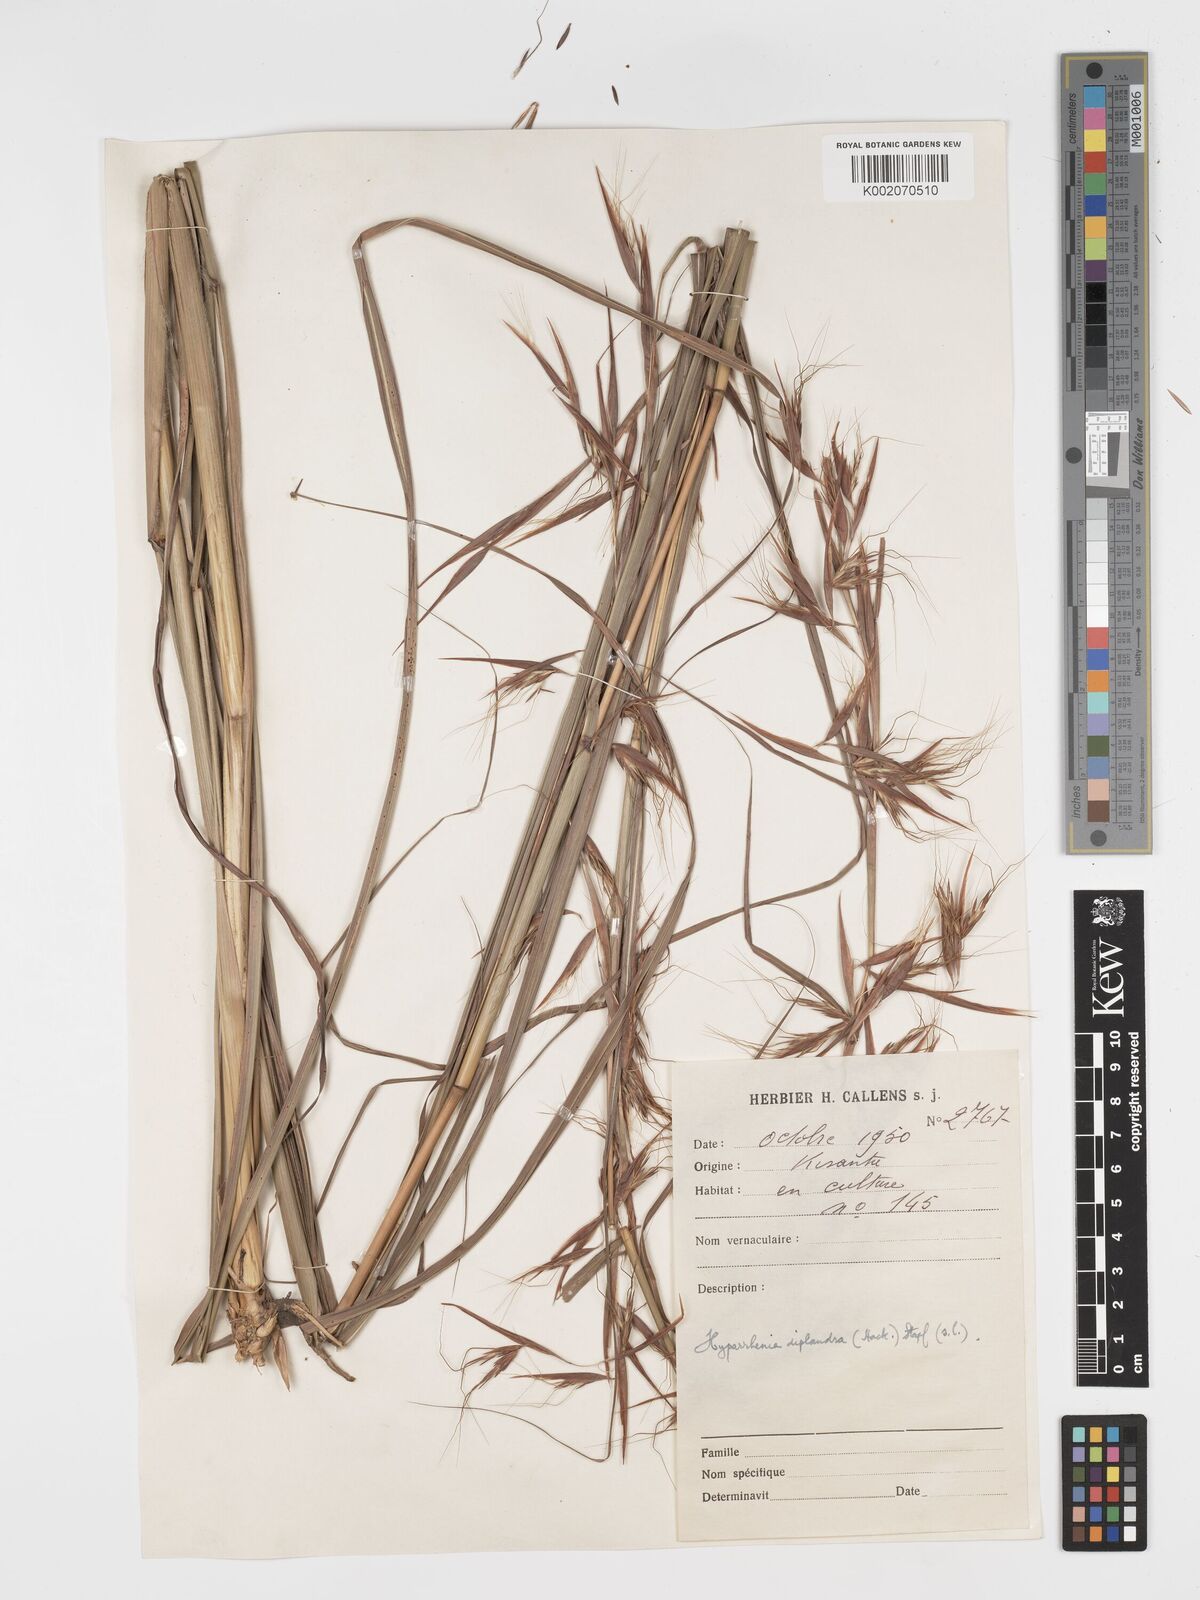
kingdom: Plantae
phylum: Tracheophyta
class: Liliopsida
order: Poales
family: Poaceae
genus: Hyparrhenia
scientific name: Hyparrhenia diplandra
